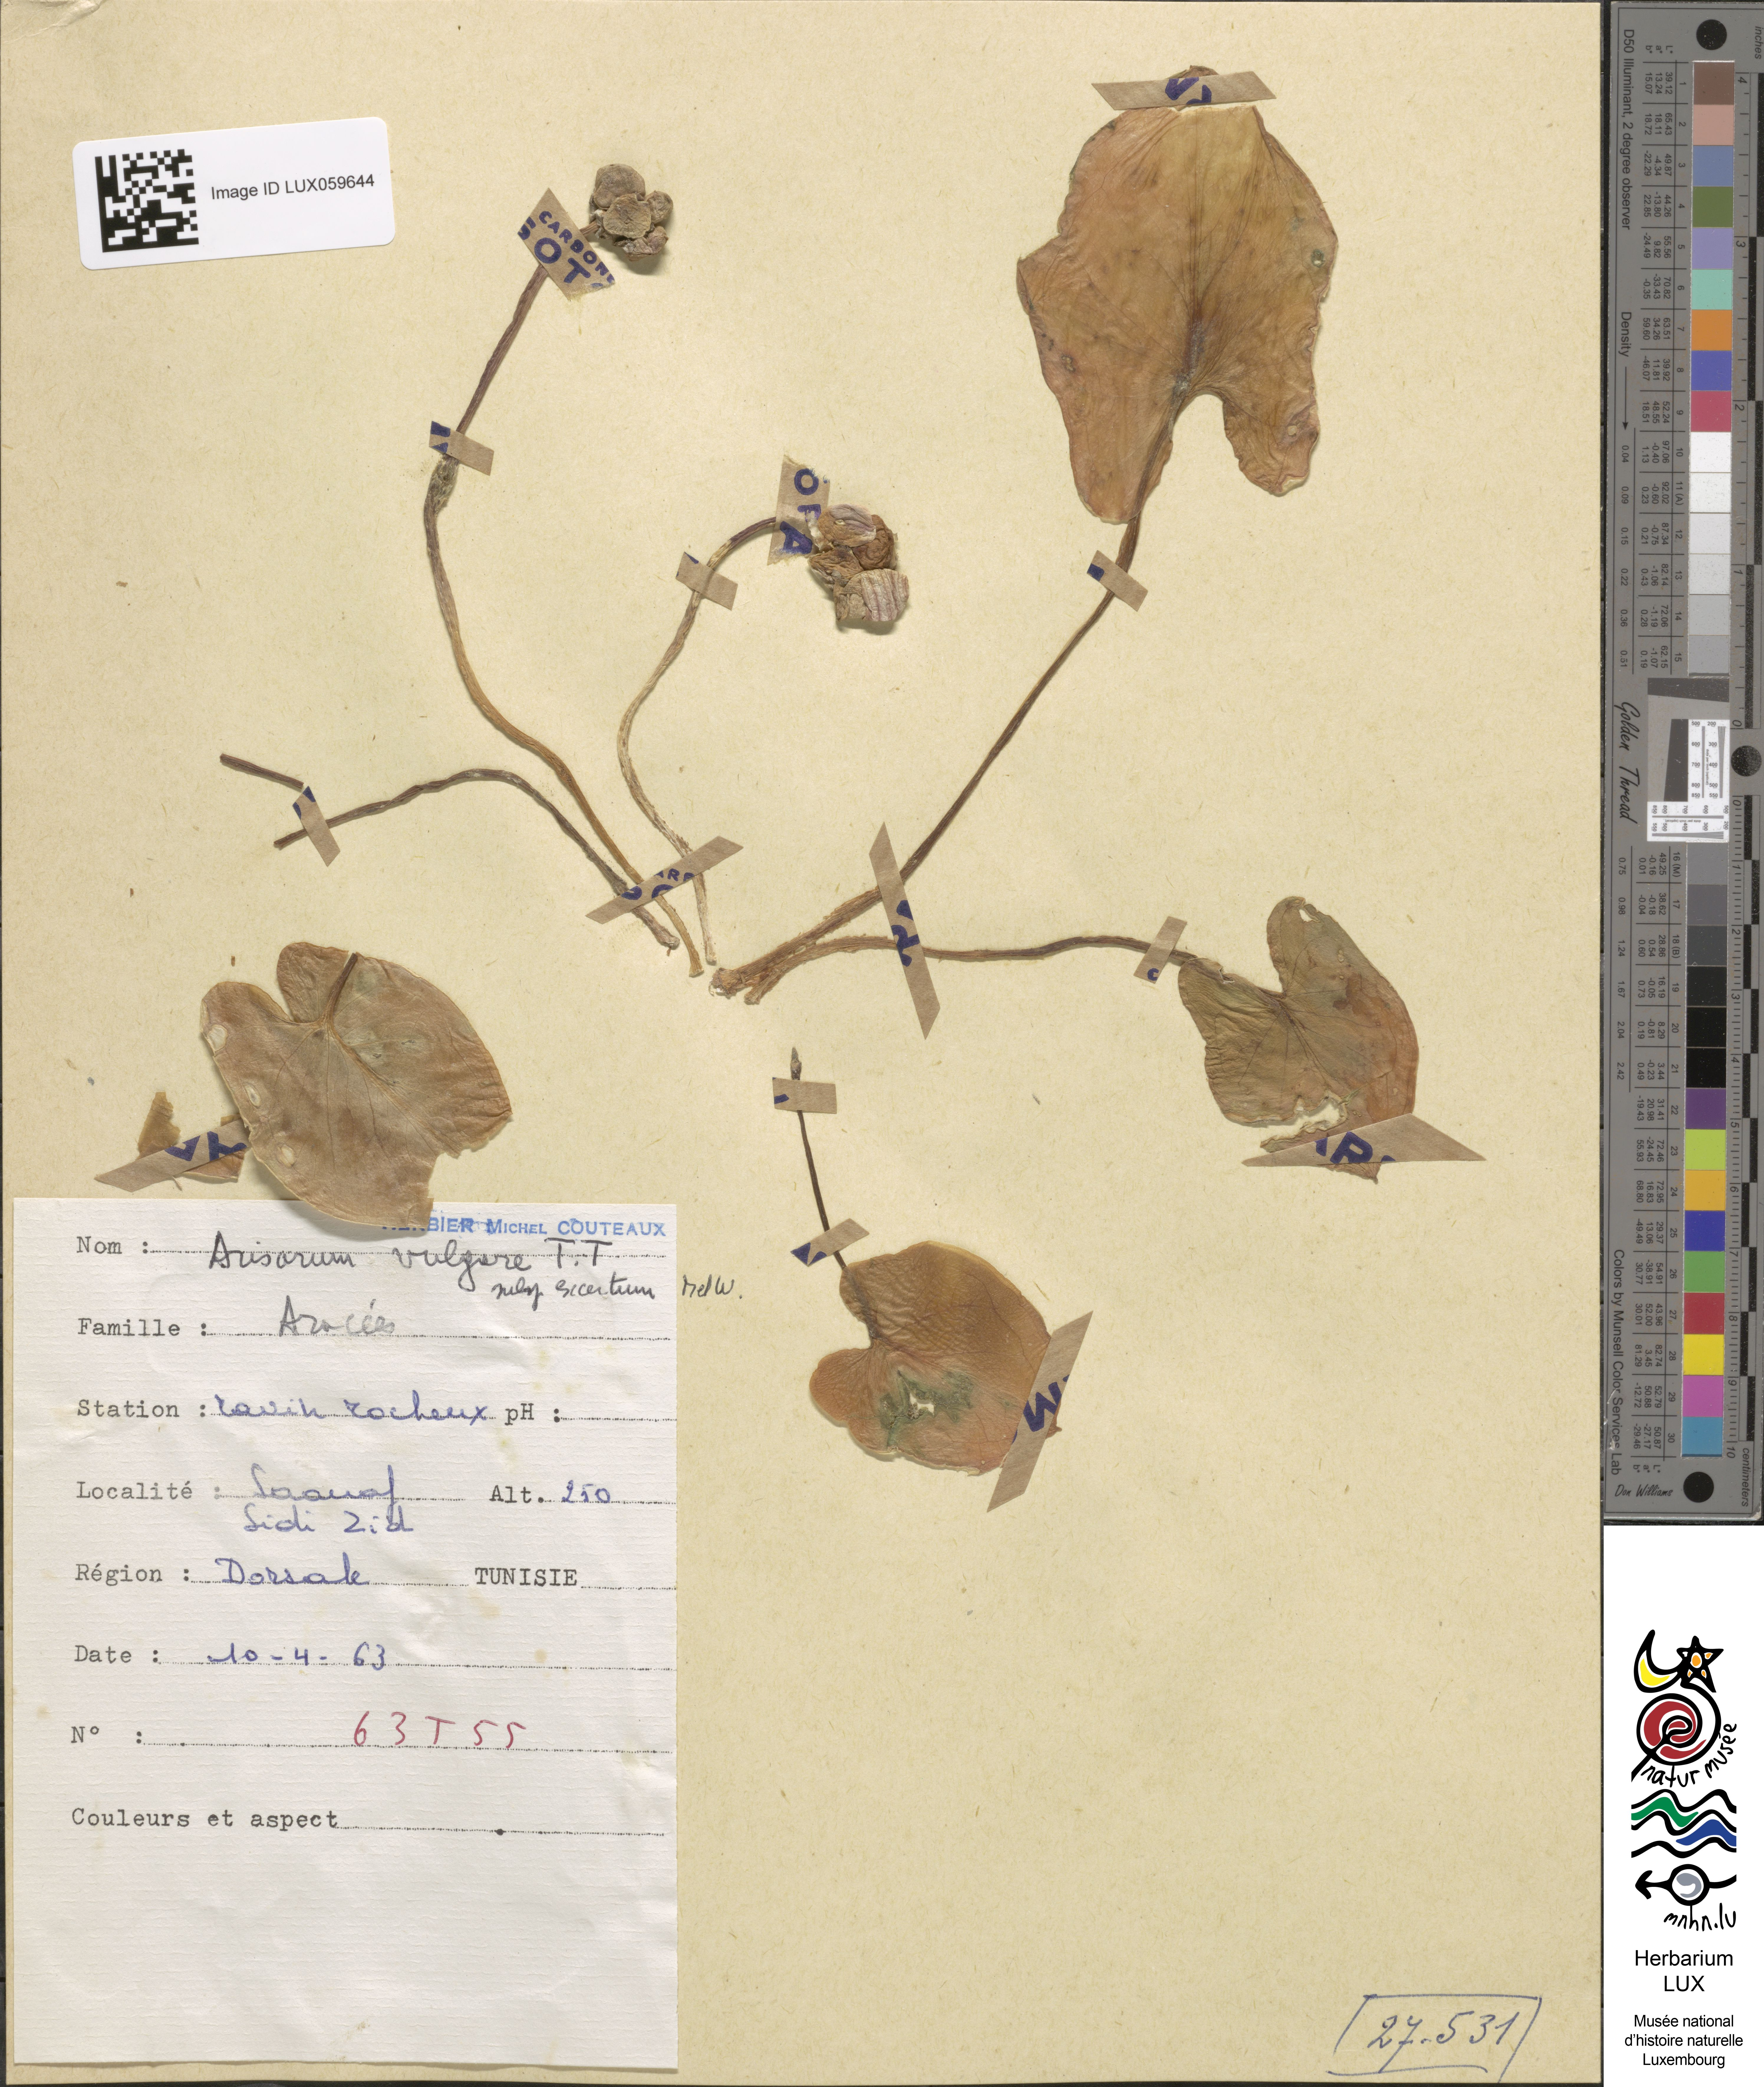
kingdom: Plantae
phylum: Tracheophyta
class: Liliopsida
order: Alismatales
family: Araceae
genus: Arisarum
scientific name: Arisarum vulgare
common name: Common arisarum
